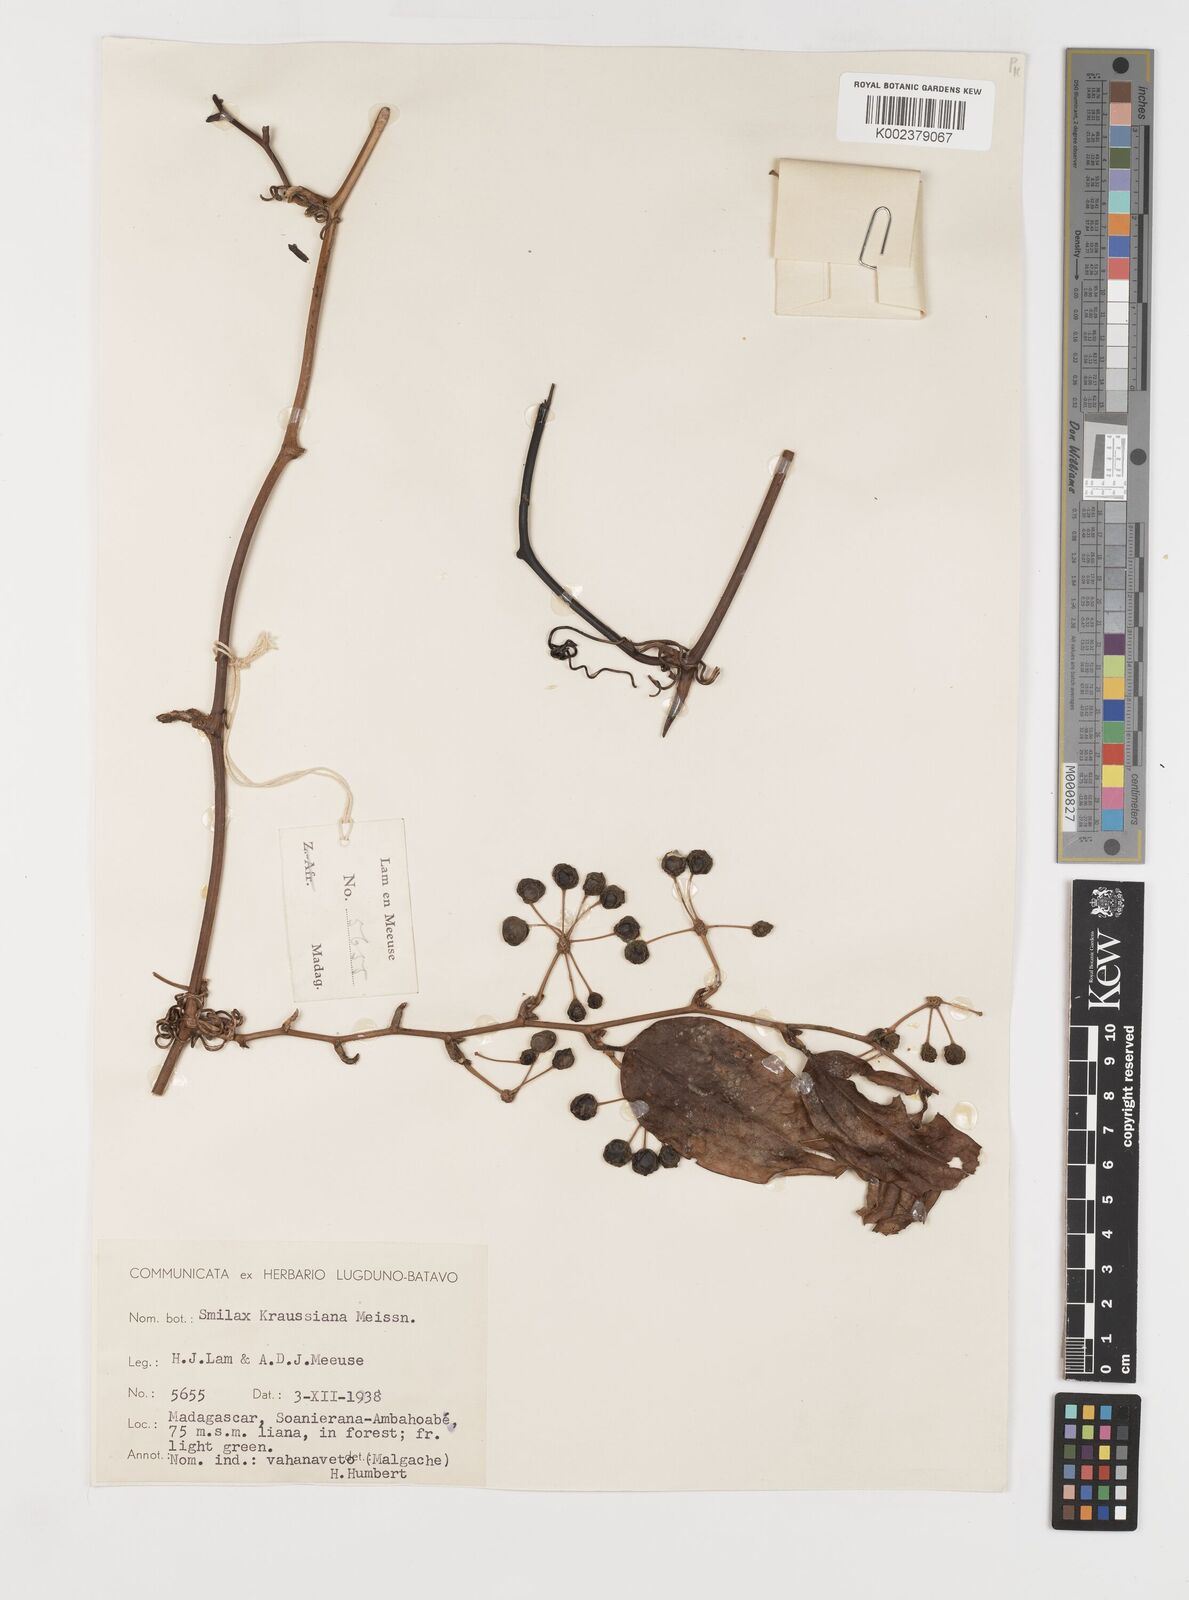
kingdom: Plantae
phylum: Tracheophyta
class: Liliopsida
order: Liliales
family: Smilacaceae
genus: Smilax
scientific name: Smilax anceps
